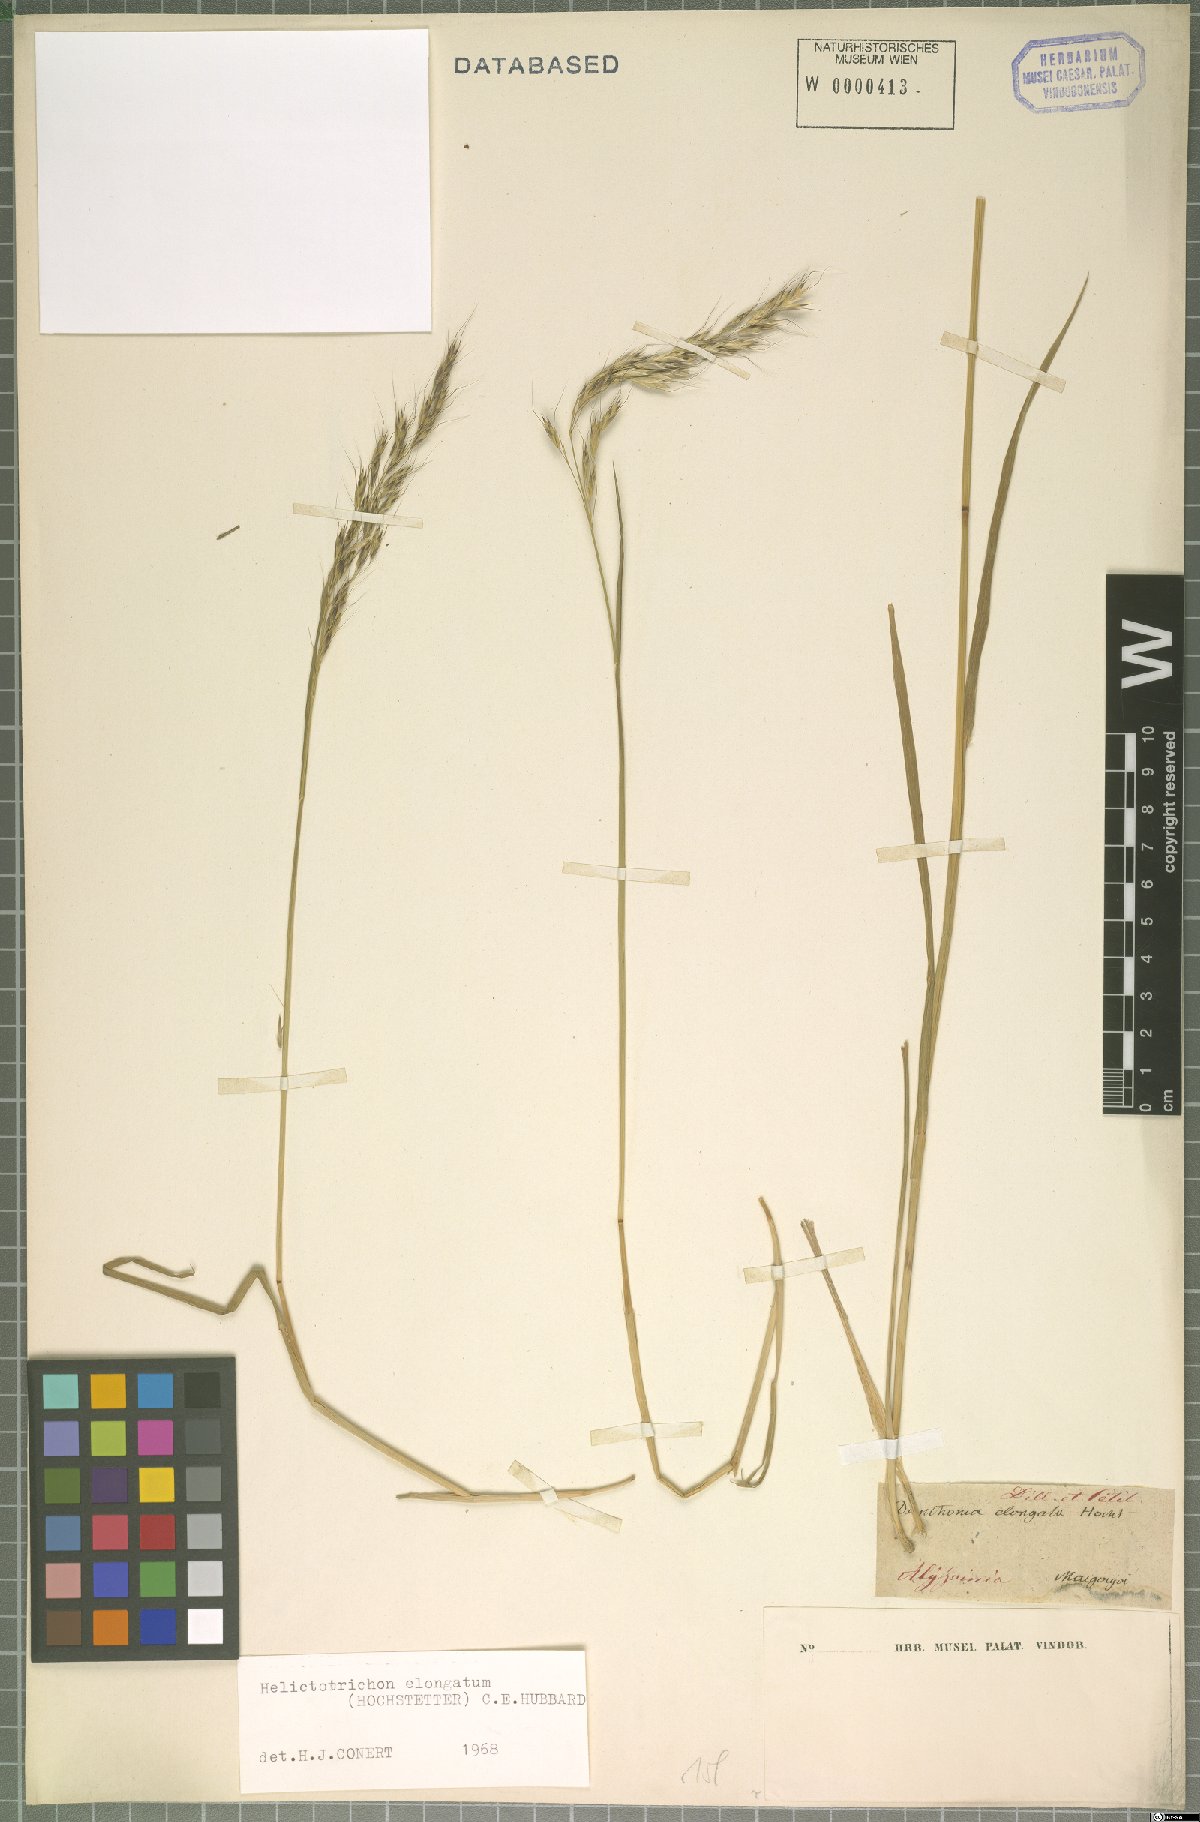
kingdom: Plantae
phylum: Tracheophyta
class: Liliopsida
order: Poales
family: Poaceae
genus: Trisetopsis
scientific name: Trisetopsis elongata
